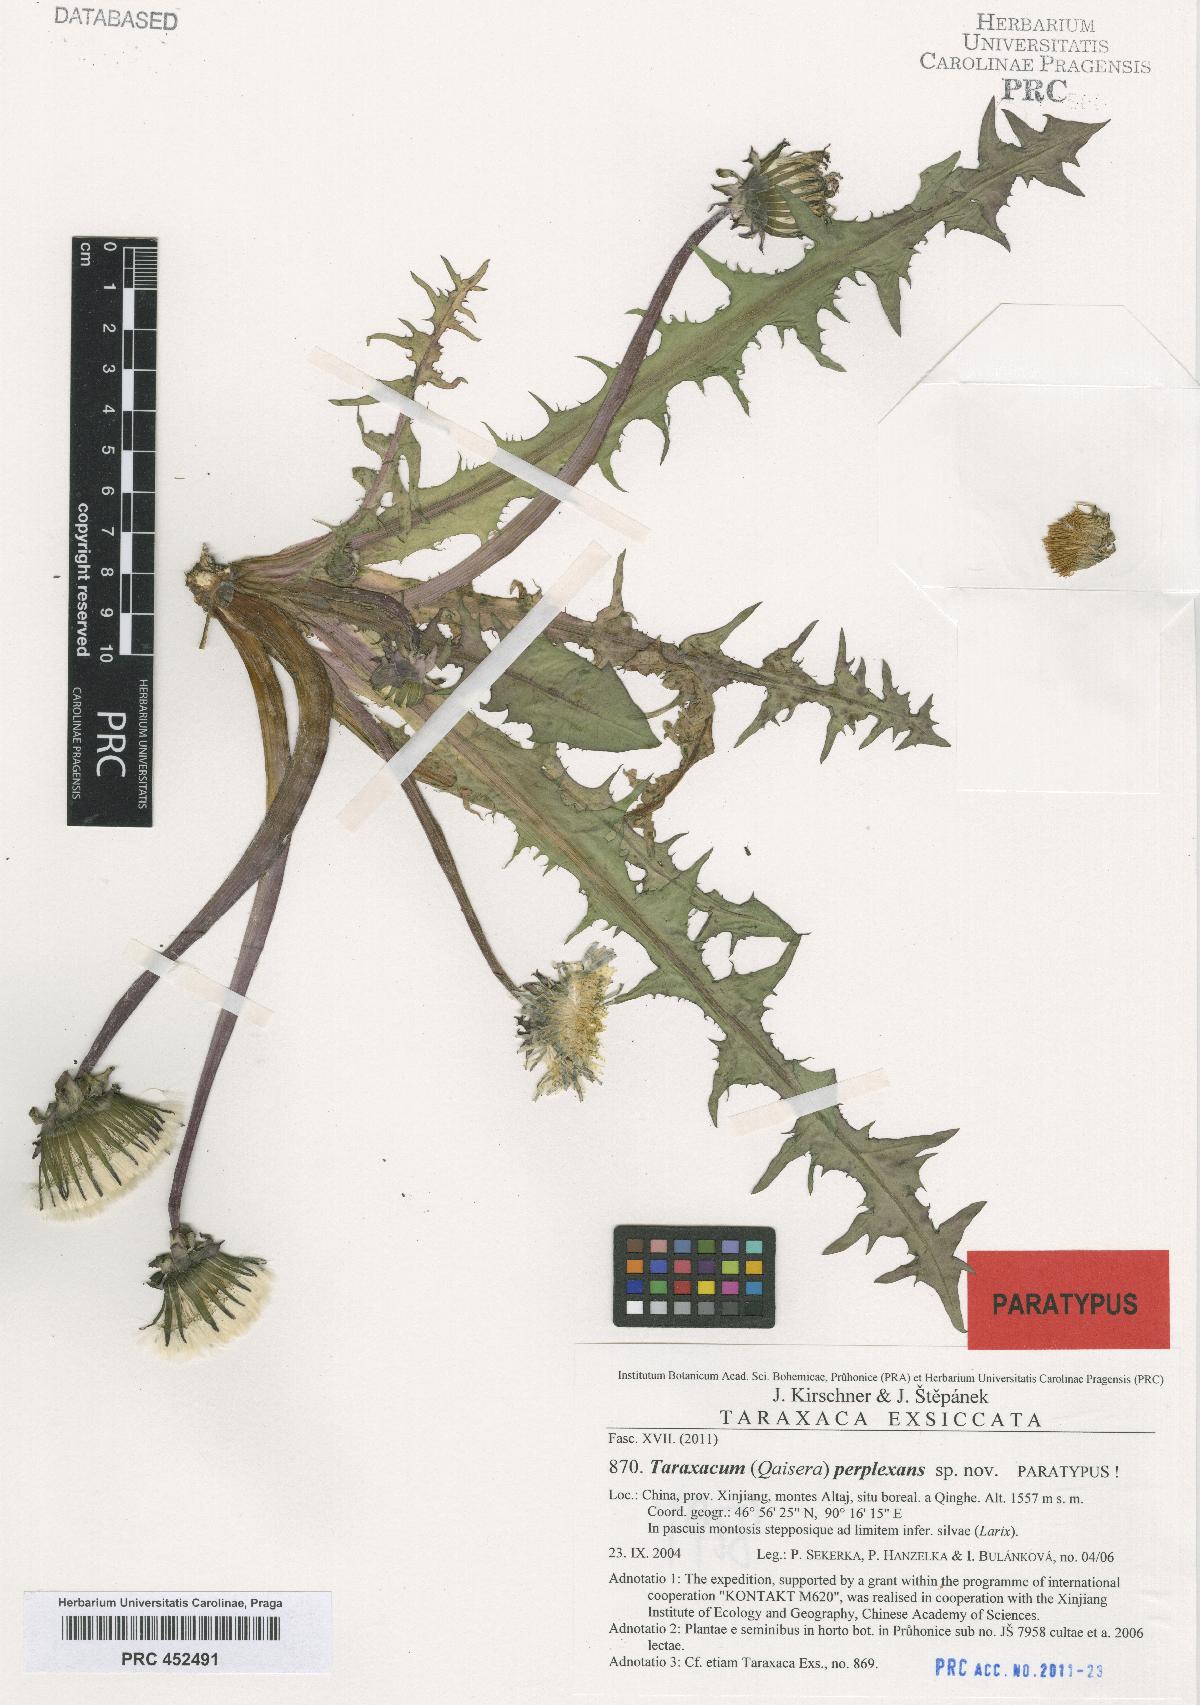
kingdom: Plantae
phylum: Tracheophyta
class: Magnoliopsida
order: Asterales
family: Asteraceae
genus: Taraxacum
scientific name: Taraxacum perplexans
